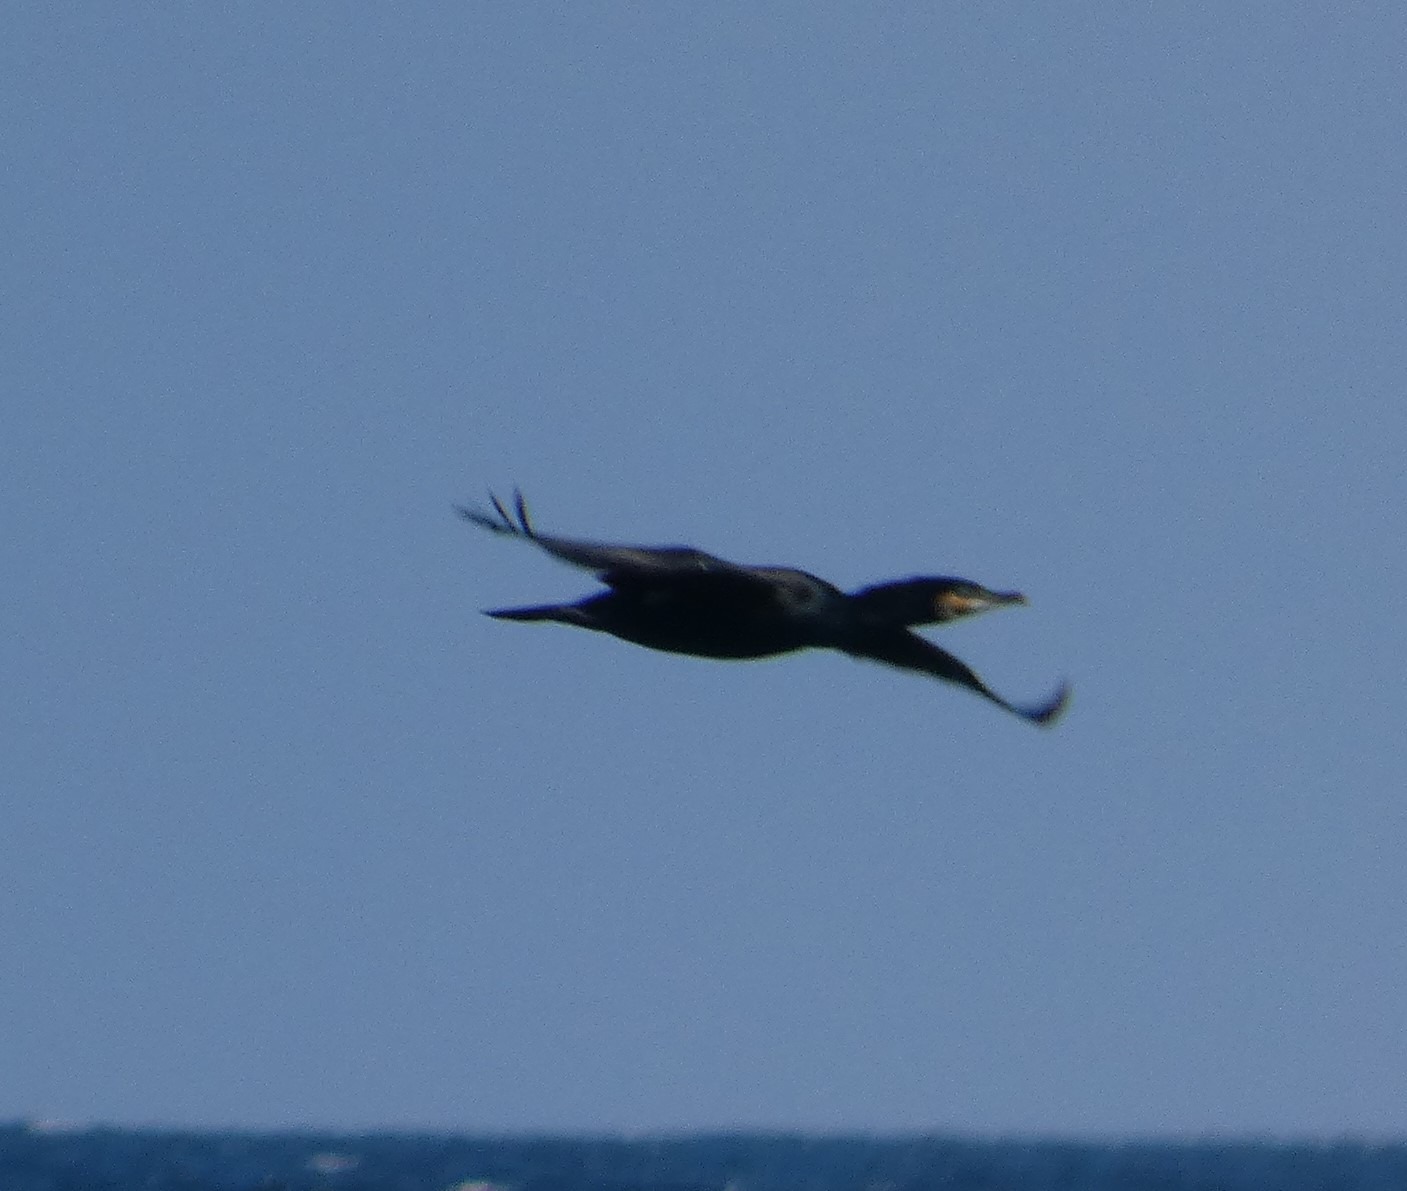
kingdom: Animalia
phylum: Chordata
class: Aves
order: Suliformes
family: Phalacrocoracidae
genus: Phalacrocorax
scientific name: Phalacrocorax carbo
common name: Skarv
